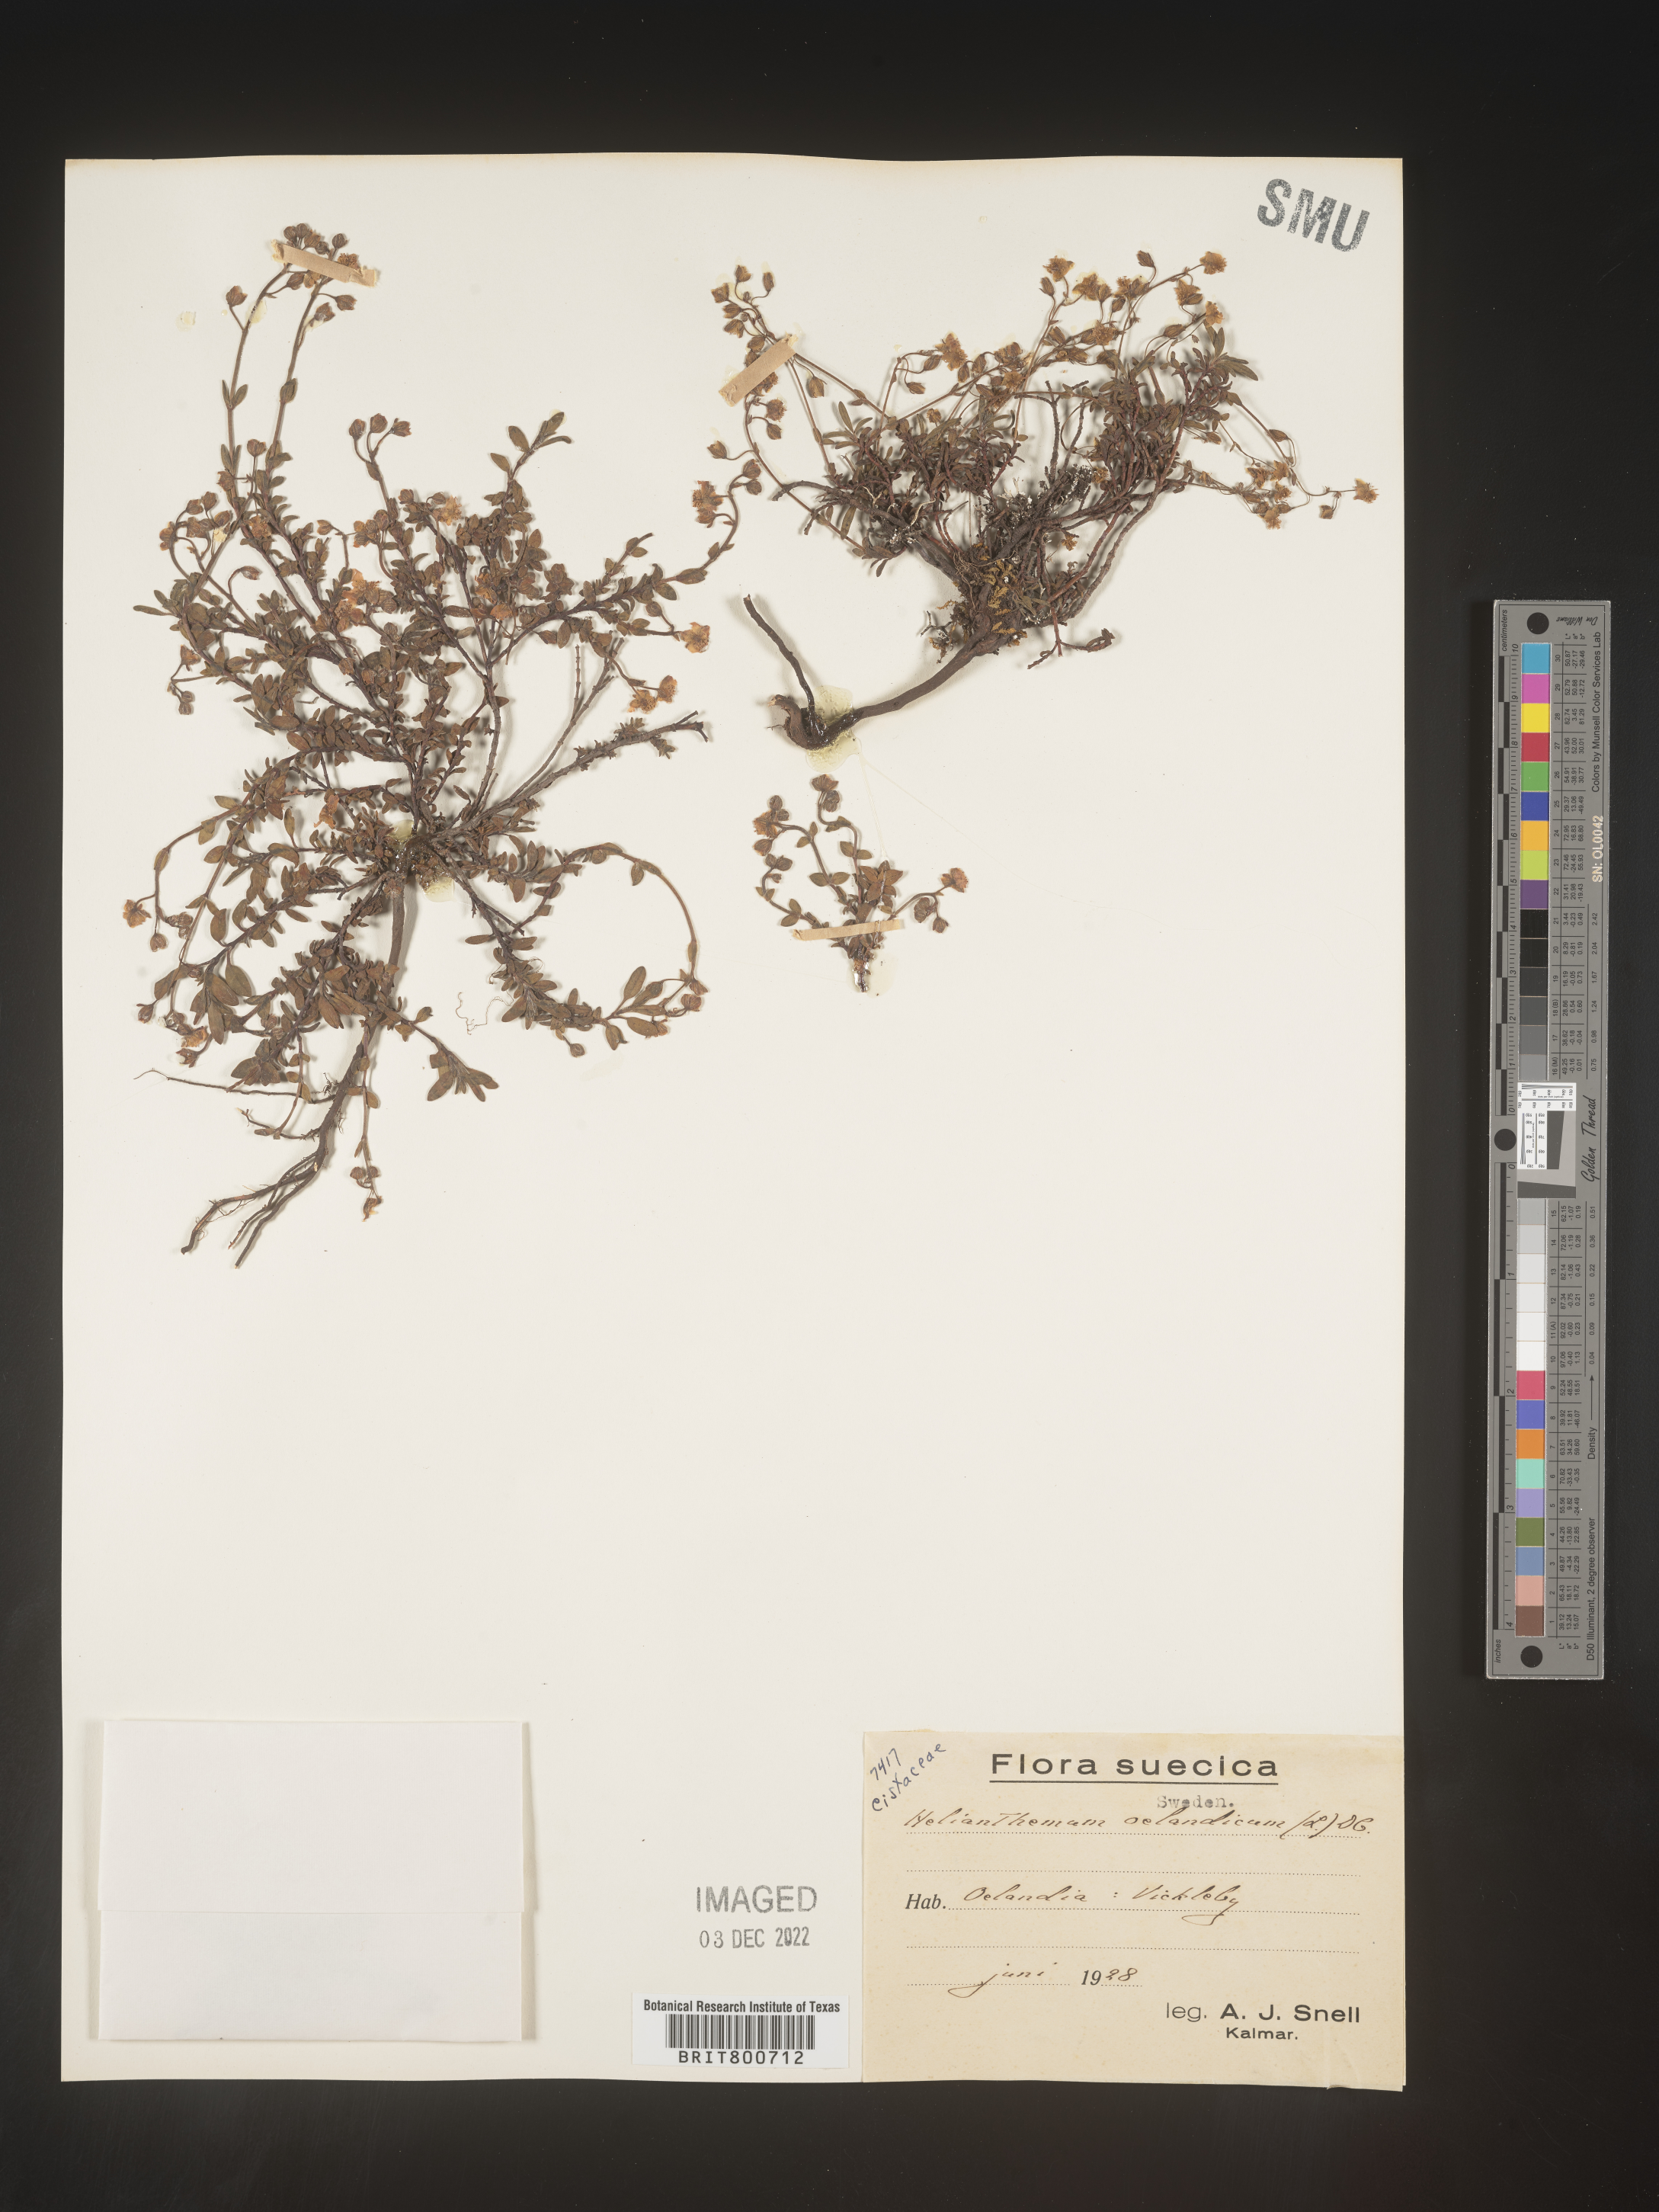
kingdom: Plantae
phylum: Tracheophyta
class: Magnoliopsida
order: Malvales
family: Cistaceae
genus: Helianthemum
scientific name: Helianthemum
